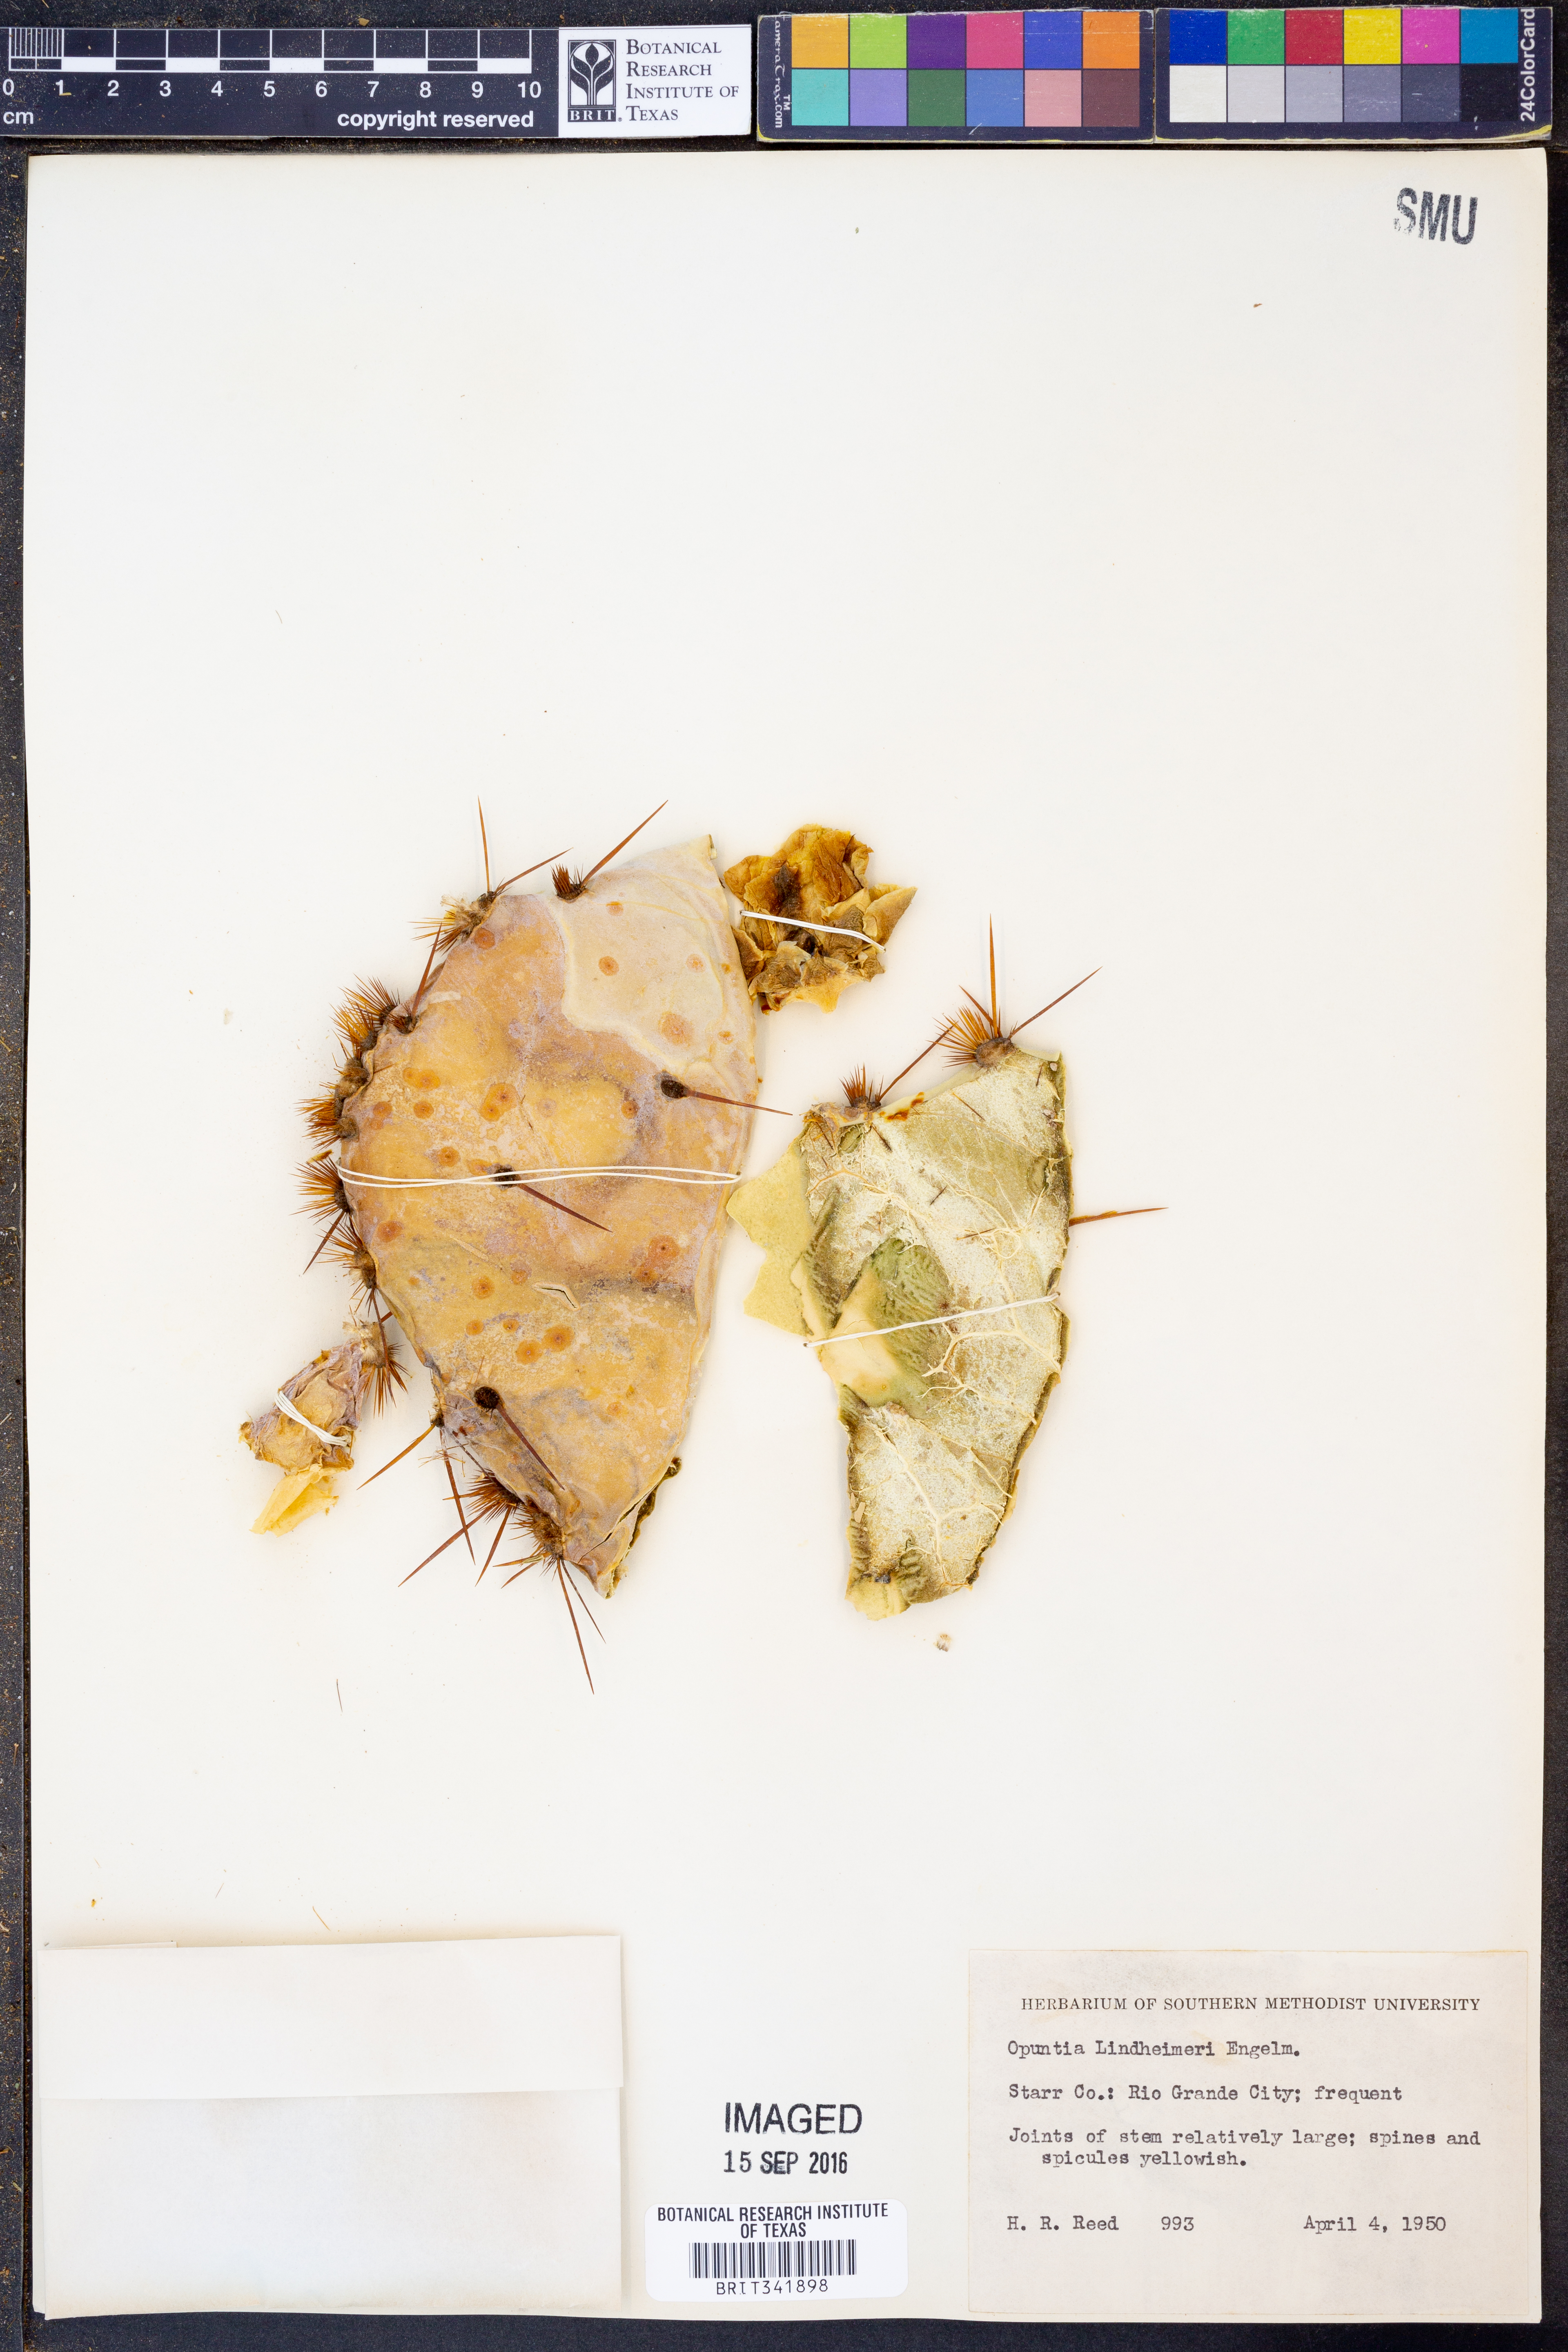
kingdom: Plantae
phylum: Tracheophyta
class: Magnoliopsida
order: Caryophyllales
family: Cactaceae
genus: Opuntia
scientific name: Opuntia engelmannii
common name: Cactus-apple
